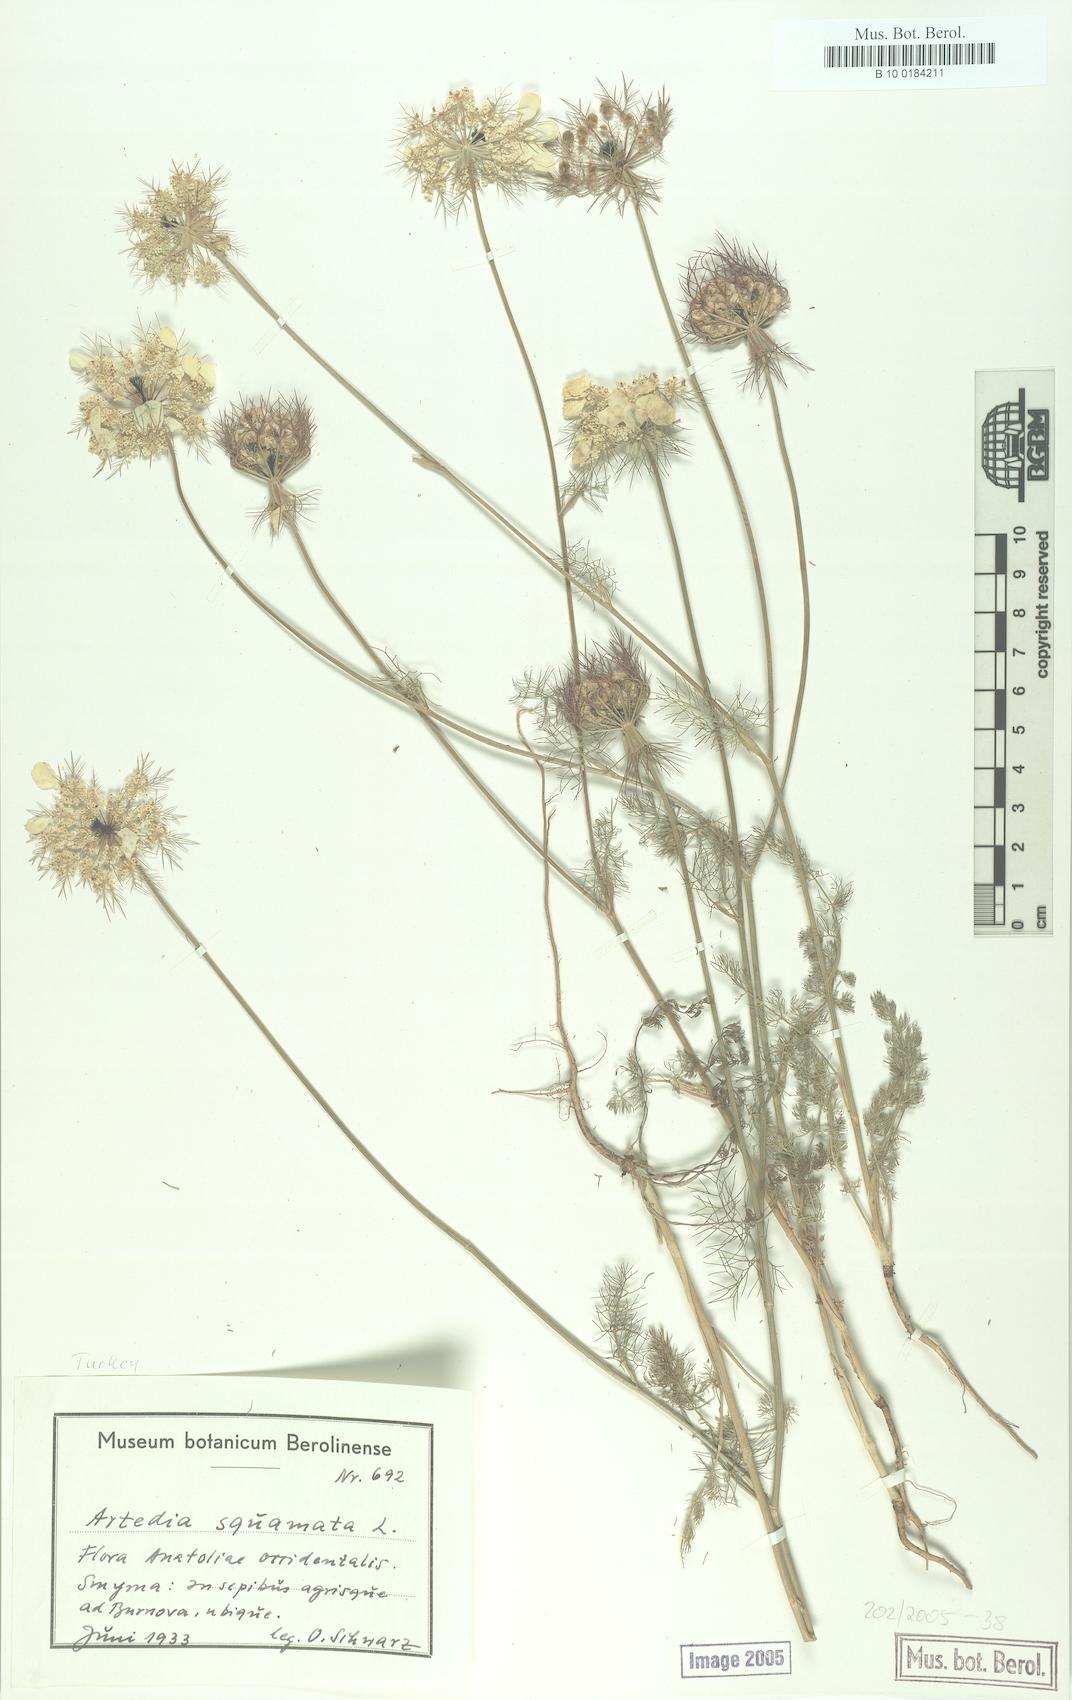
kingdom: Plantae
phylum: Tracheophyta
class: Magnoliopsida
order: Apiales
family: Apiaceae
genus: Artedia
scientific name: Artedia squamata
